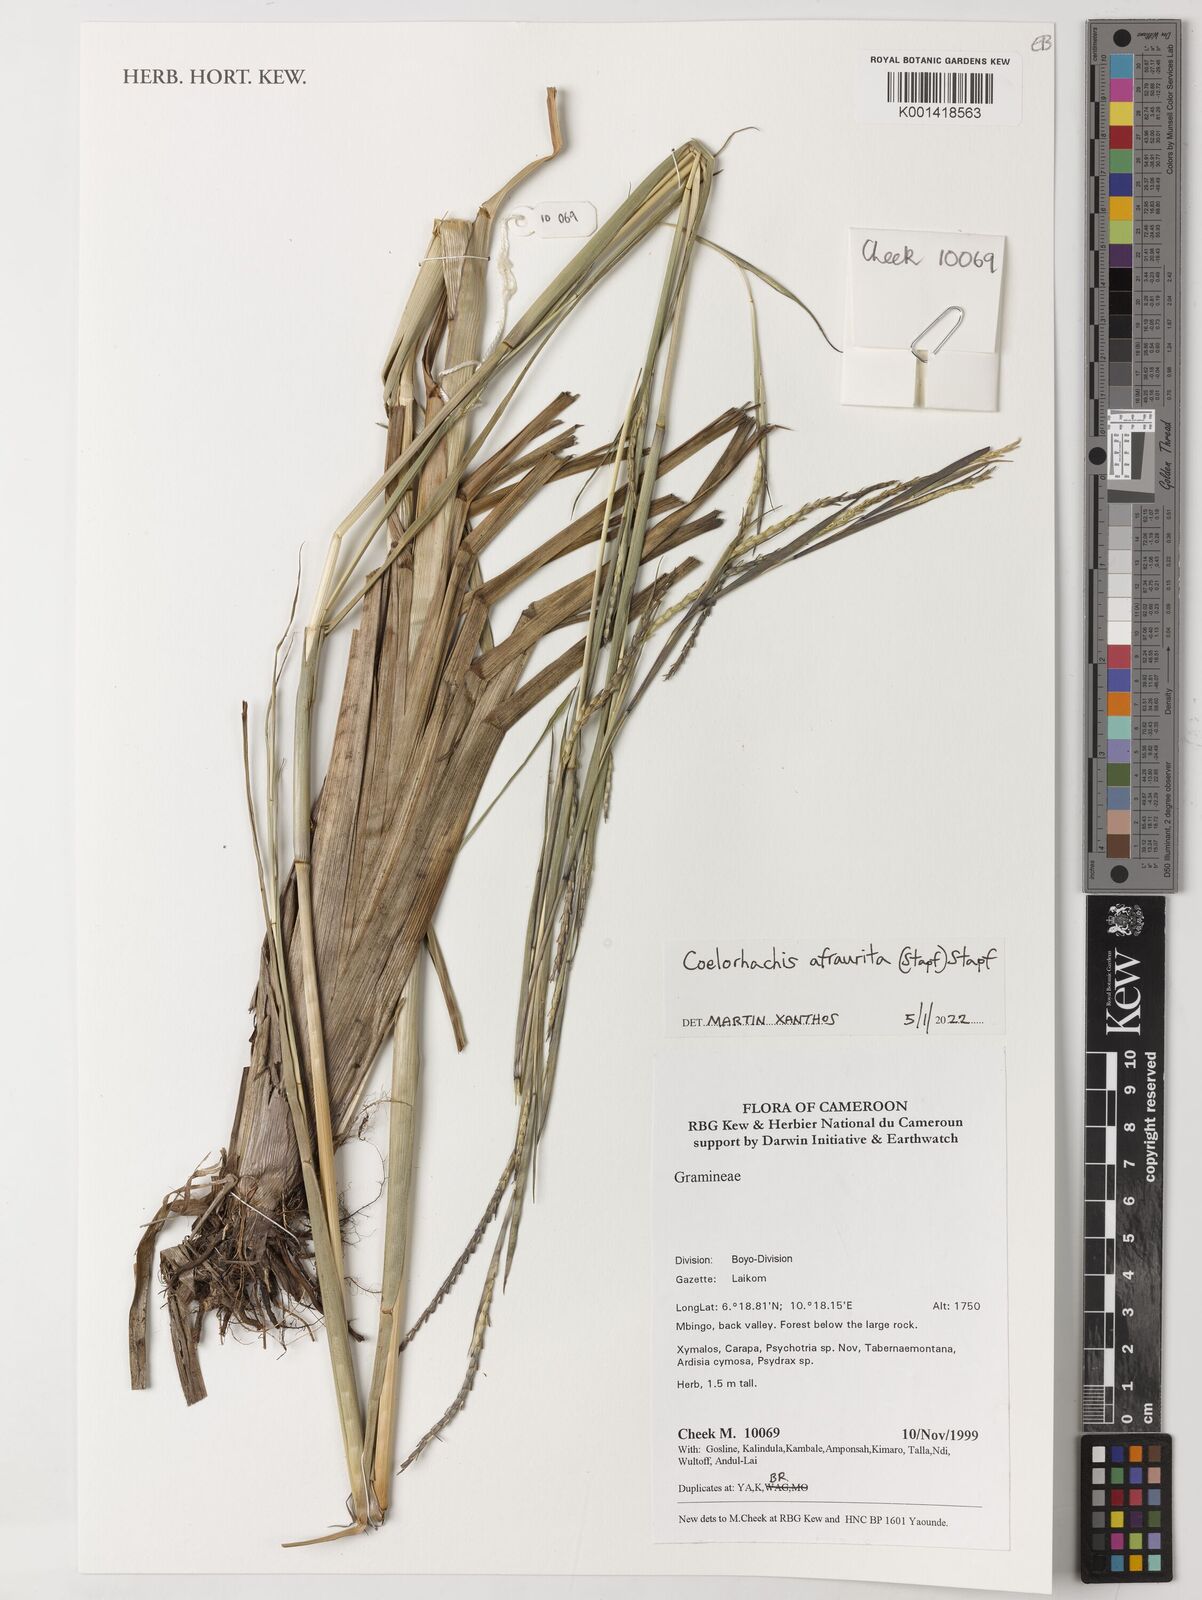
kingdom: Plantae
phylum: Tracheophyta
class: Liliopsida
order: Poales
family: Poaceae
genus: Rottboellia
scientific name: Rottboellia afraurita
